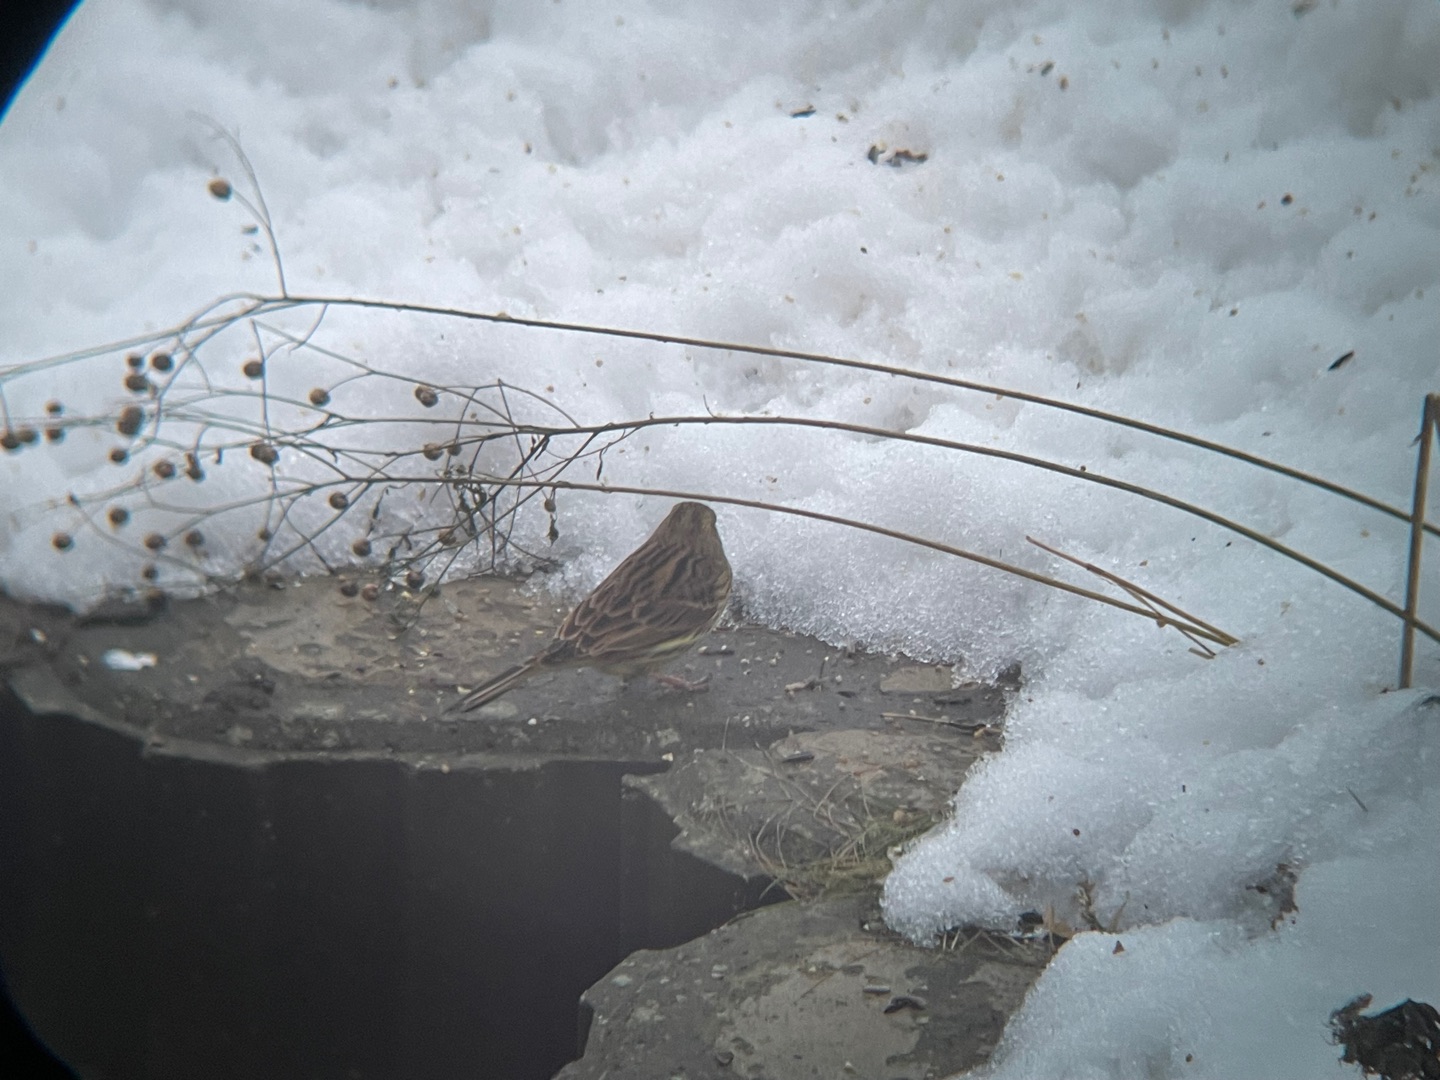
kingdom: Animalia
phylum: Chordata
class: Aves
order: Passeriformes
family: Emberizidae
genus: Emberiza
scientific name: Emberiza citrinella
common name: Gulspurv
